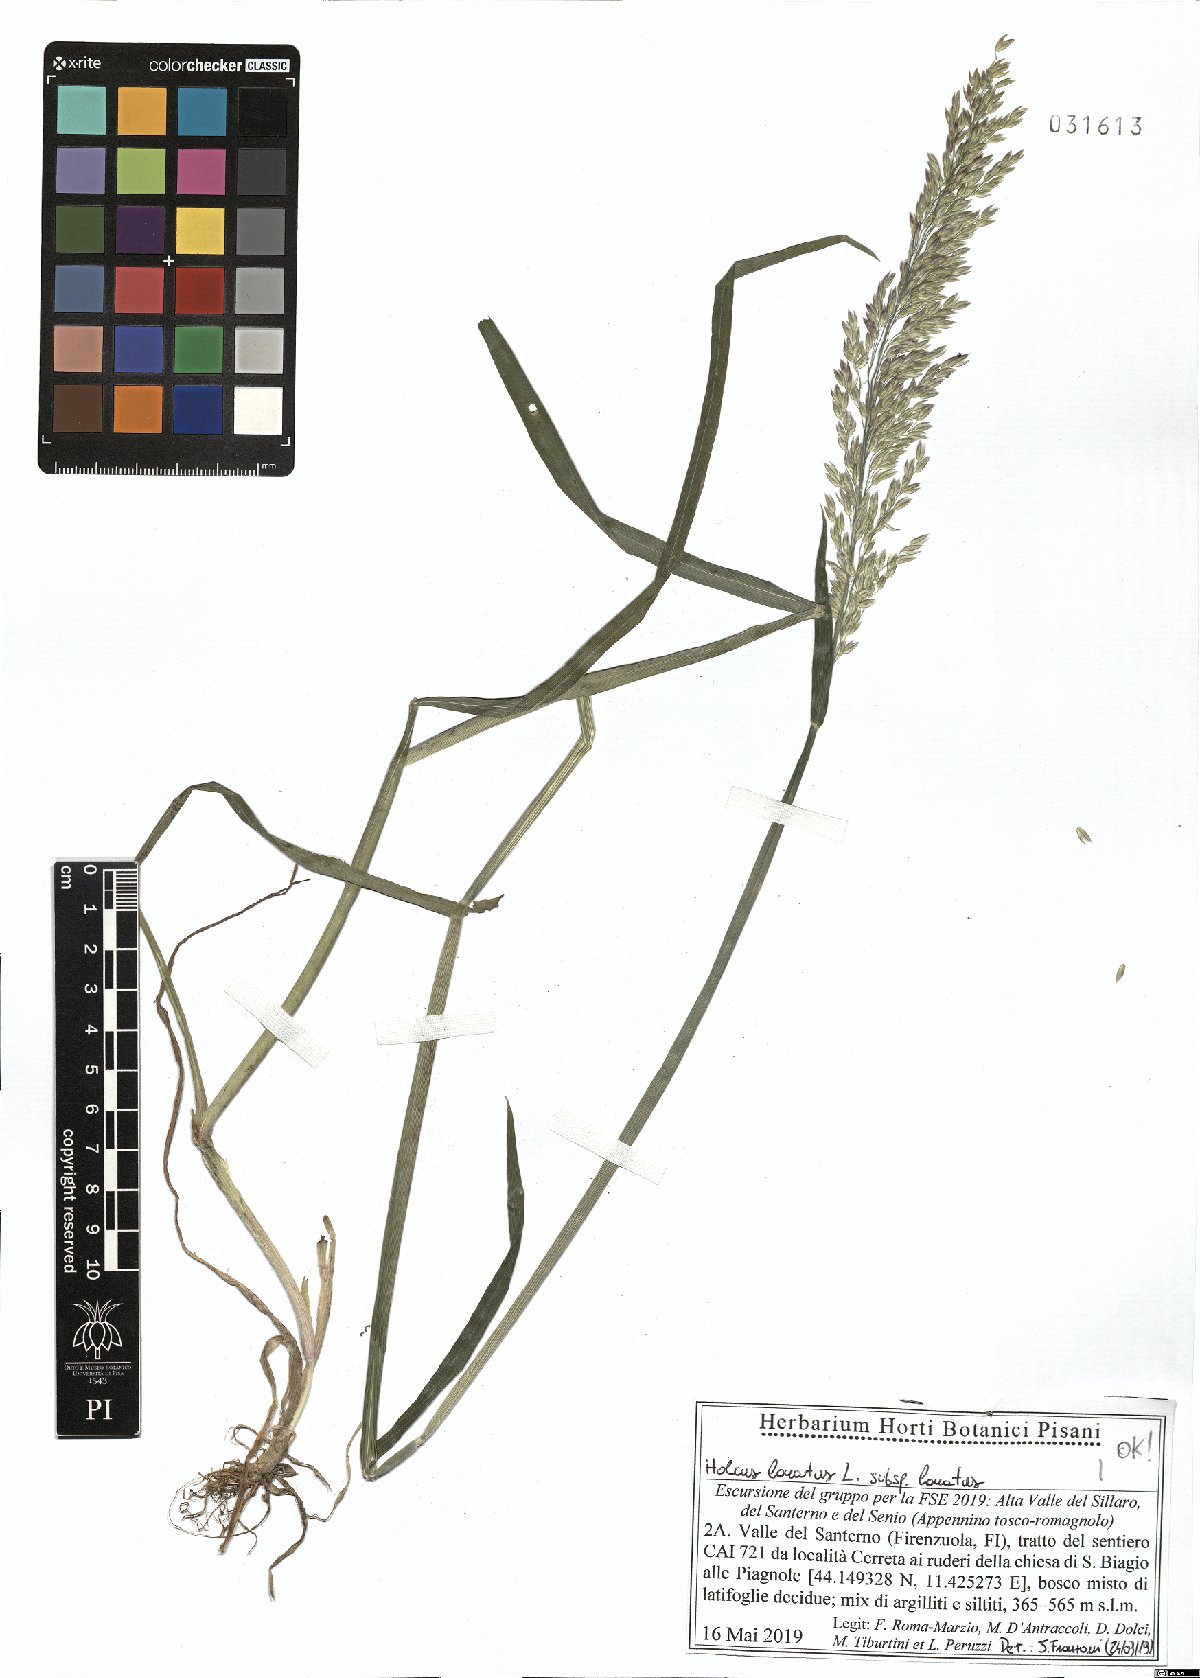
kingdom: Plantae
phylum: Tracheophyta
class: Liliopsida
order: Poales
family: Poaceae
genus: Holcus
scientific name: Holcus lanatus
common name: Yorkshire-fog
